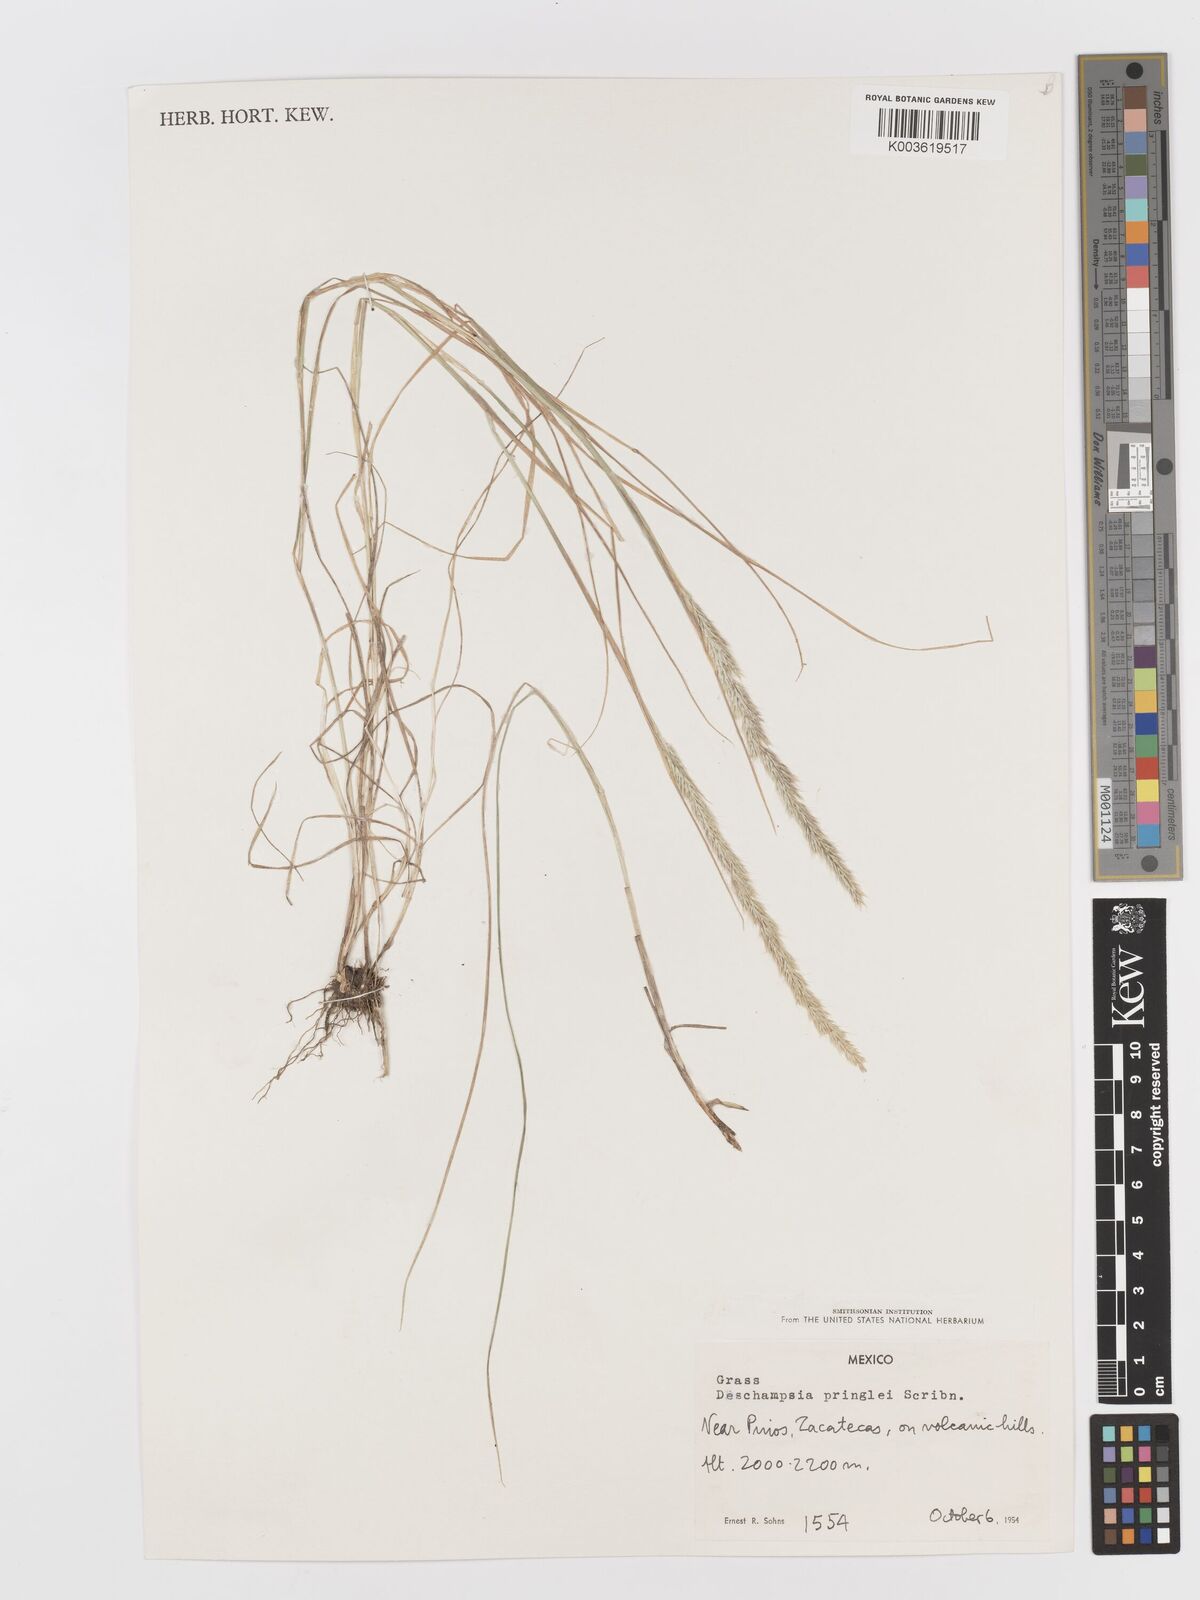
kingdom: Plantae
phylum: Tracheophyta
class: Liliopsida
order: Poales
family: Poaceae
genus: Peyritschia
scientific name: Peyritschia pringlei
